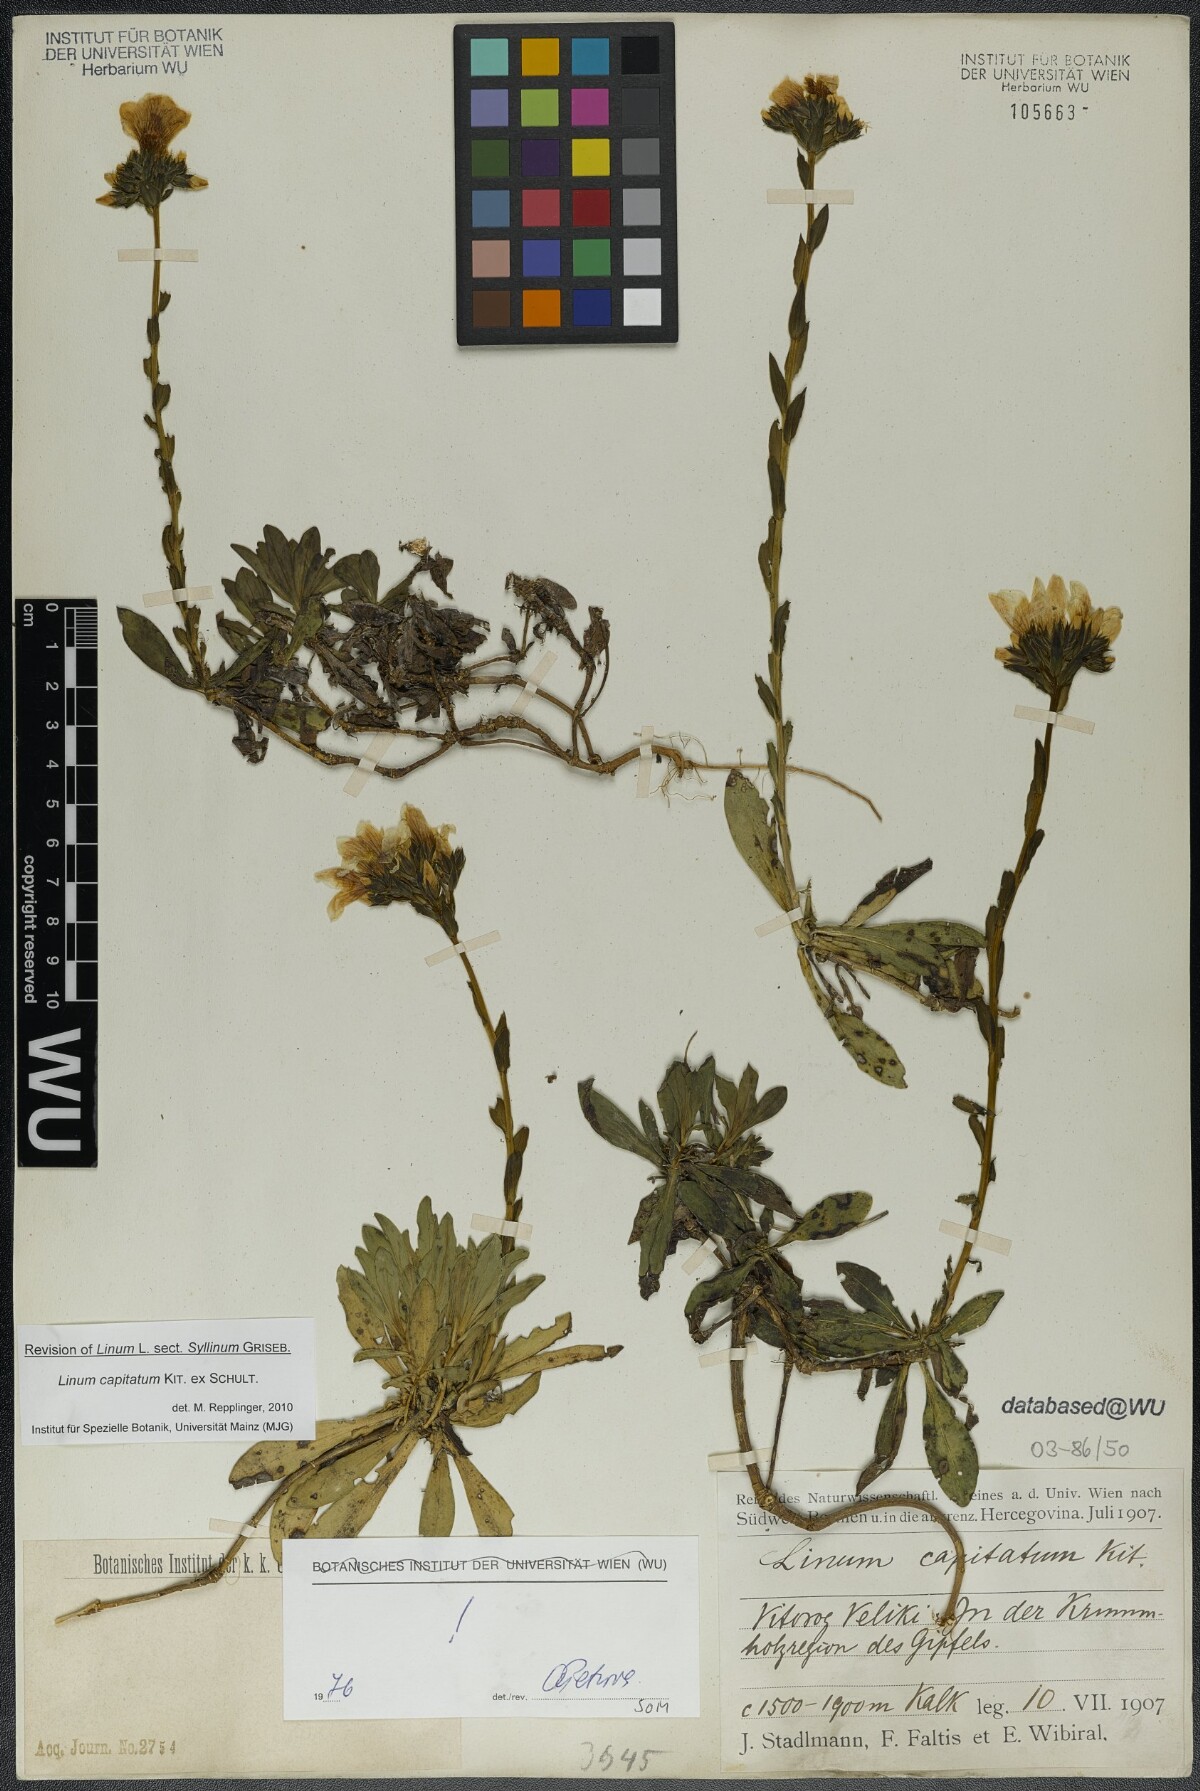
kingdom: Plantae
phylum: Tracheophyta
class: Magnoliopsida
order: Malpighiales
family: Linaceae
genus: Linum
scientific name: Linum capitatum
